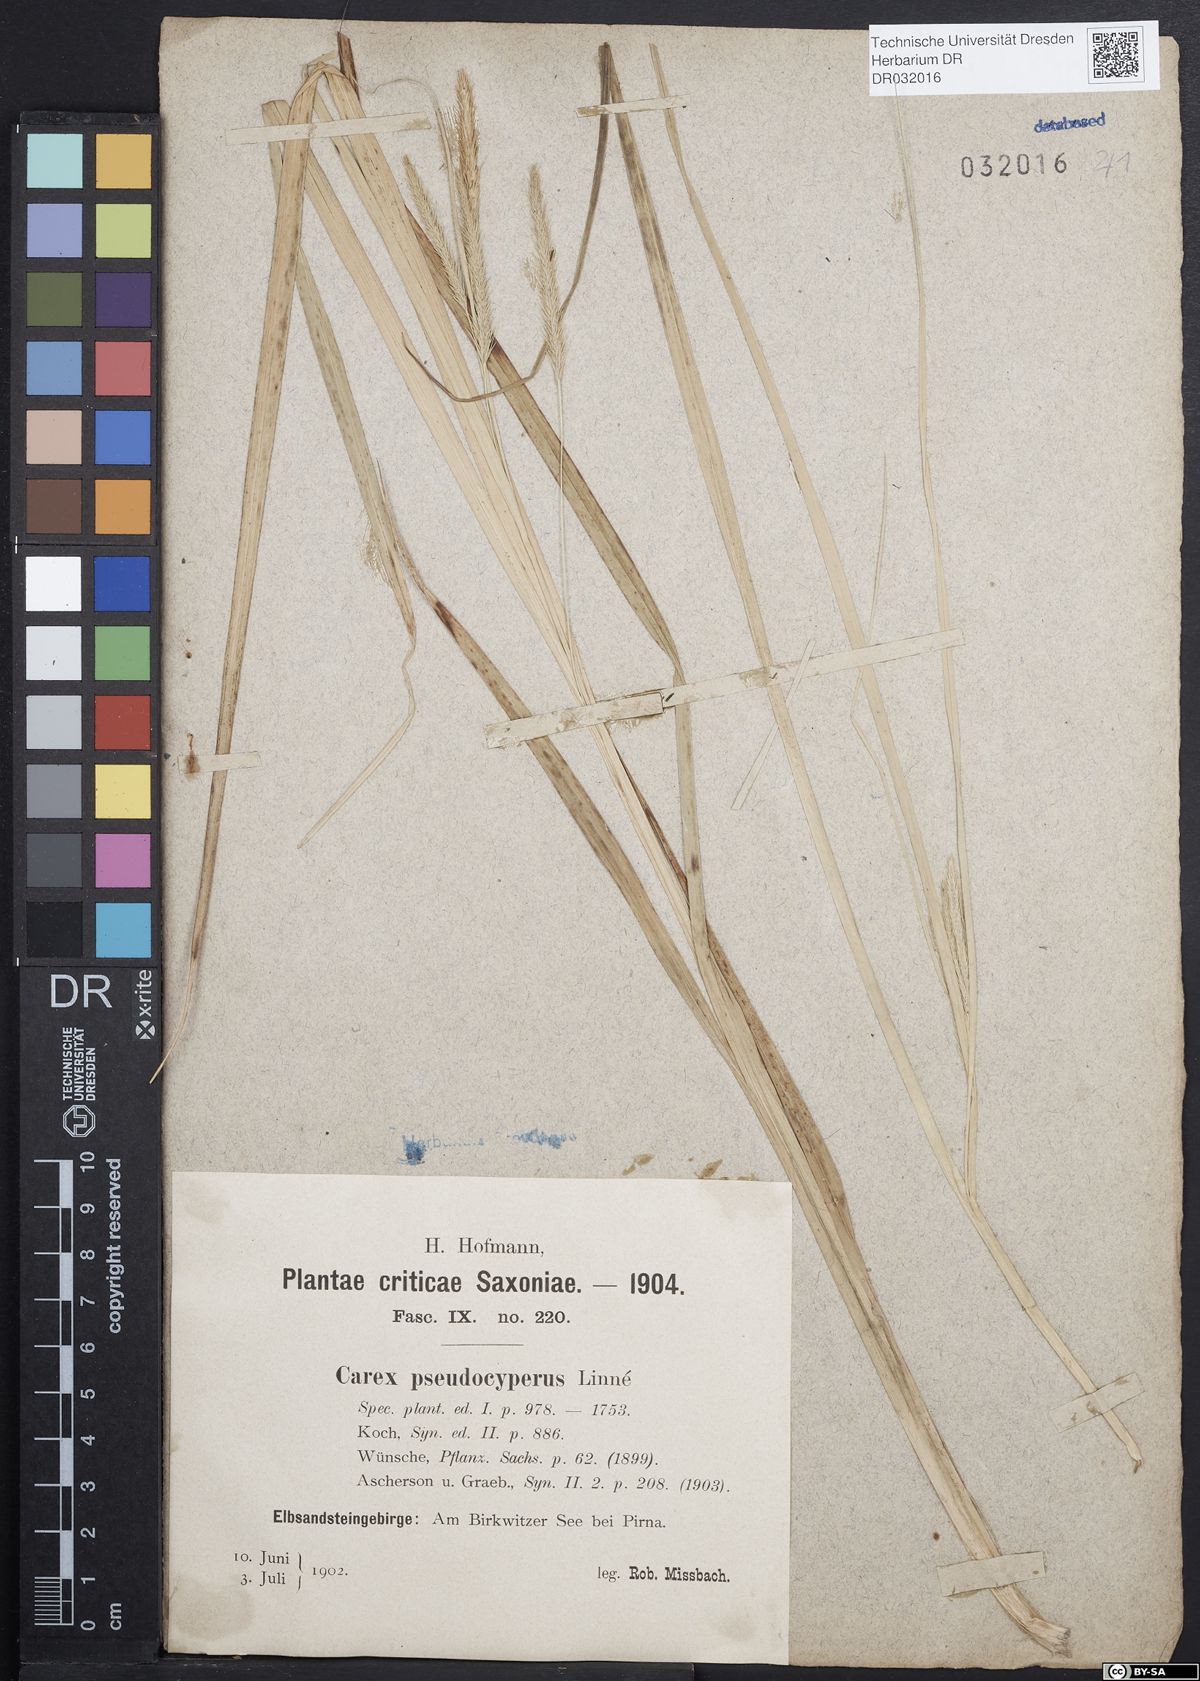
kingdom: Plantae
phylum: Tracheophyta
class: Liliopsida
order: Poales
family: Cyperaceae
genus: Carex
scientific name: Carex pseudocyperus
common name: Cyperus sedge
